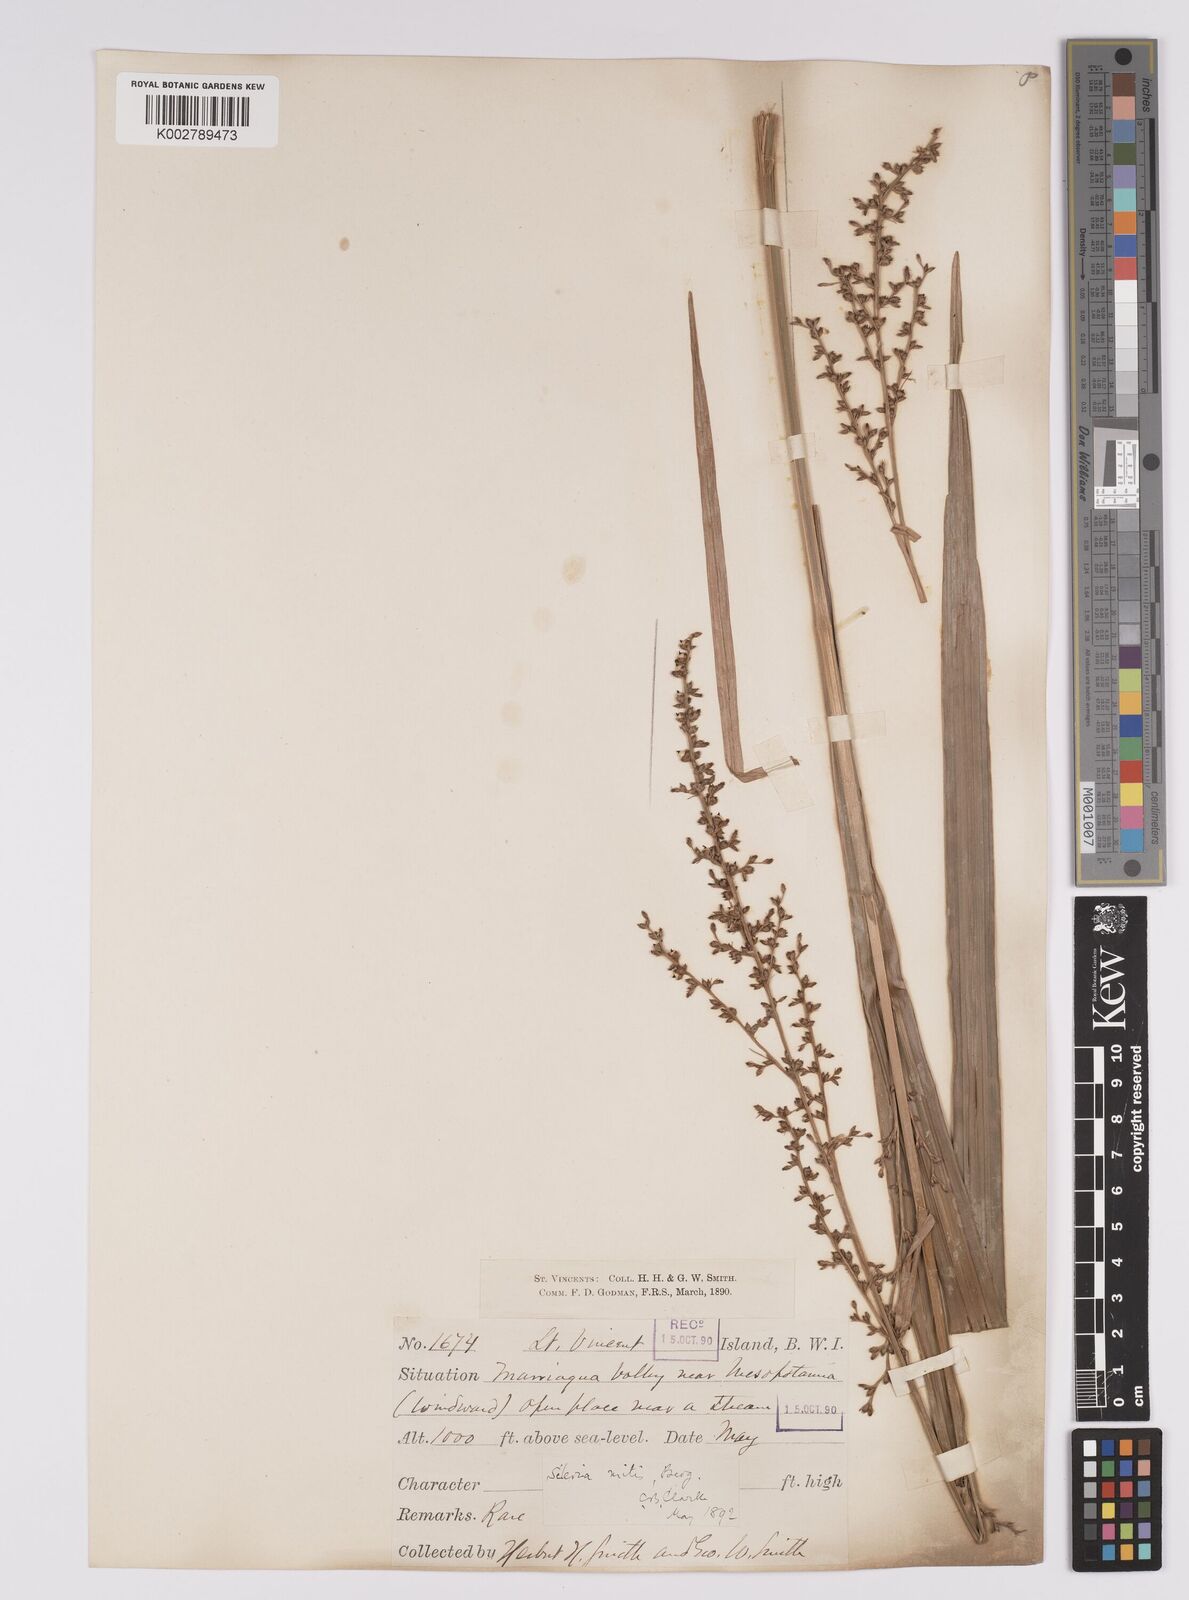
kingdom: Plantae
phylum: Tracheophyta
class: Liliopsida
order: Poales
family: Cyperaceae
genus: Scleria
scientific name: Scleria mitis
